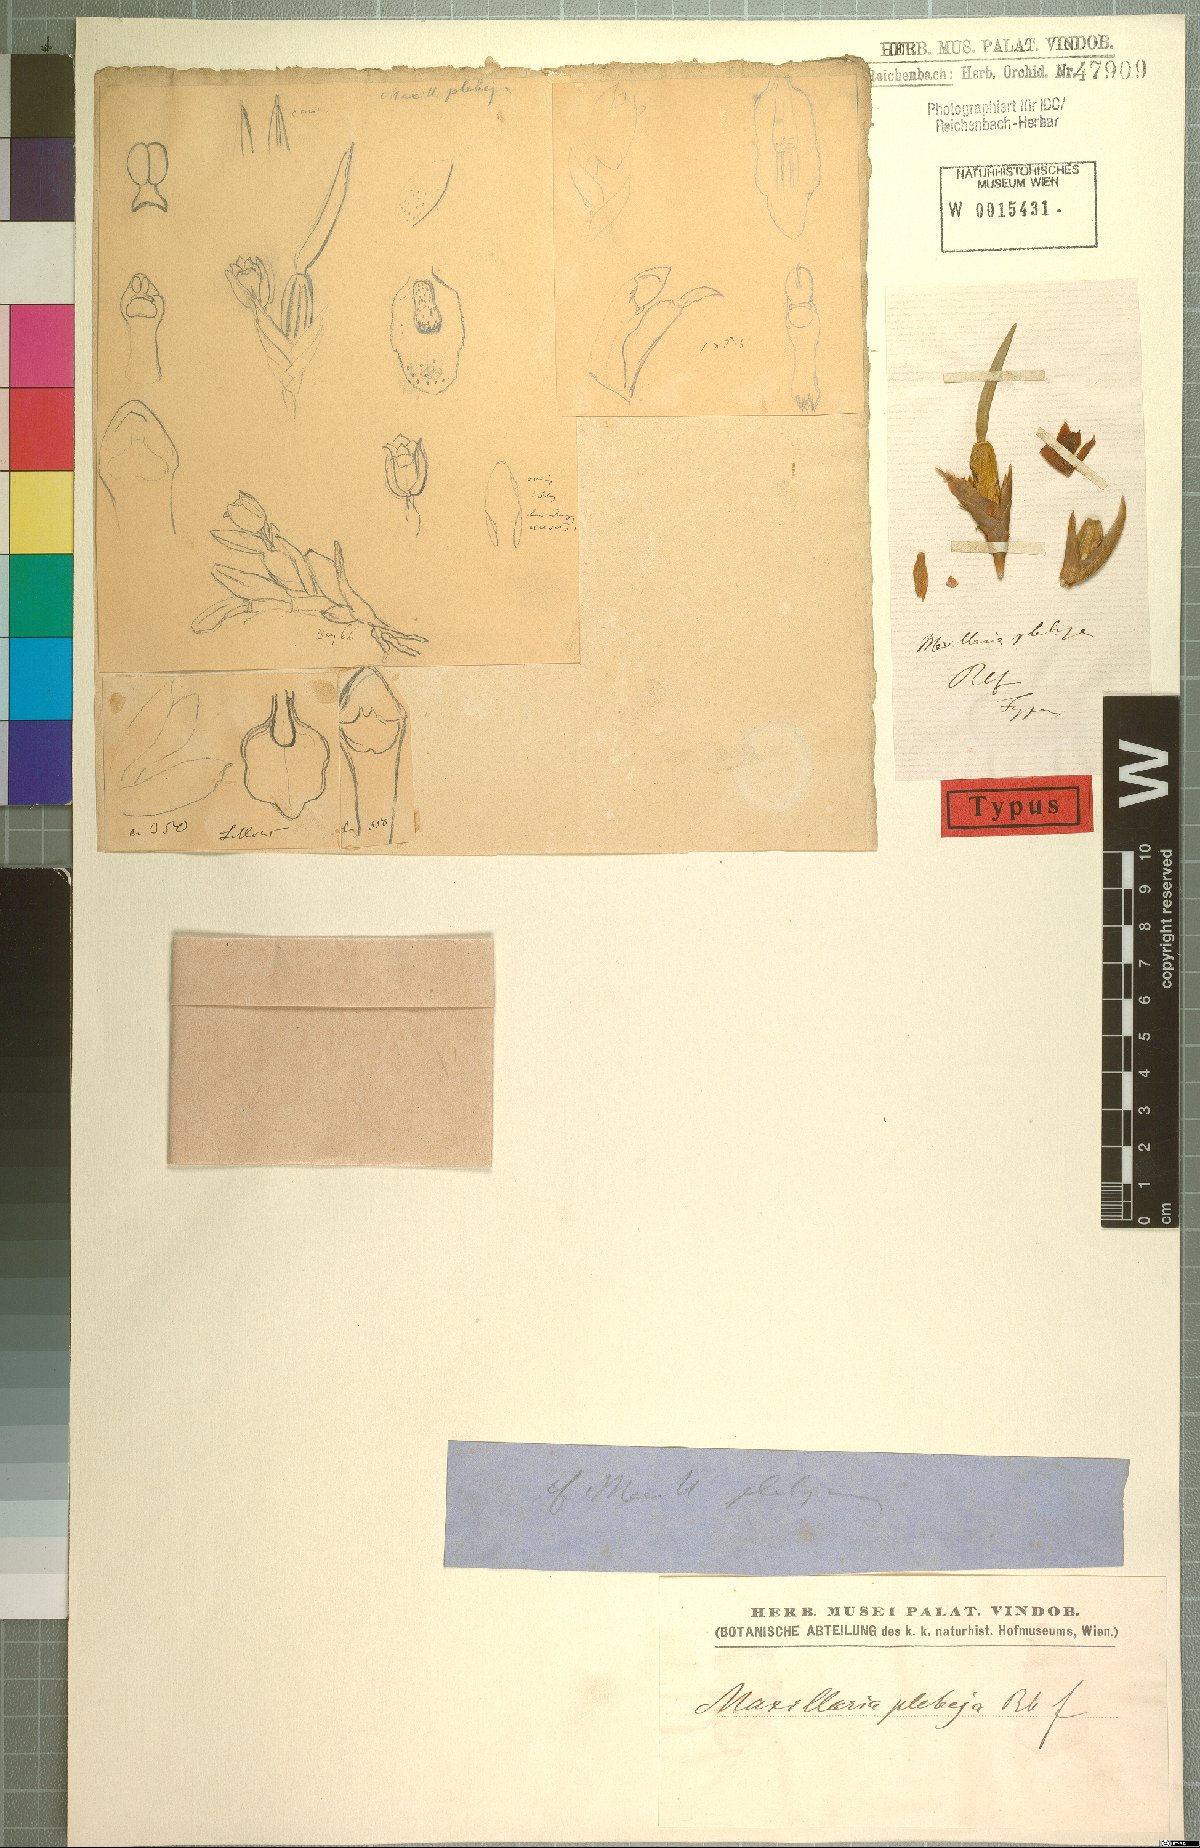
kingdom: Plantae
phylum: Tracheophyta
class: Liliopsida
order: Asparagales
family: Orchidaceae
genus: Maxillaria
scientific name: Maxillaria pumila
